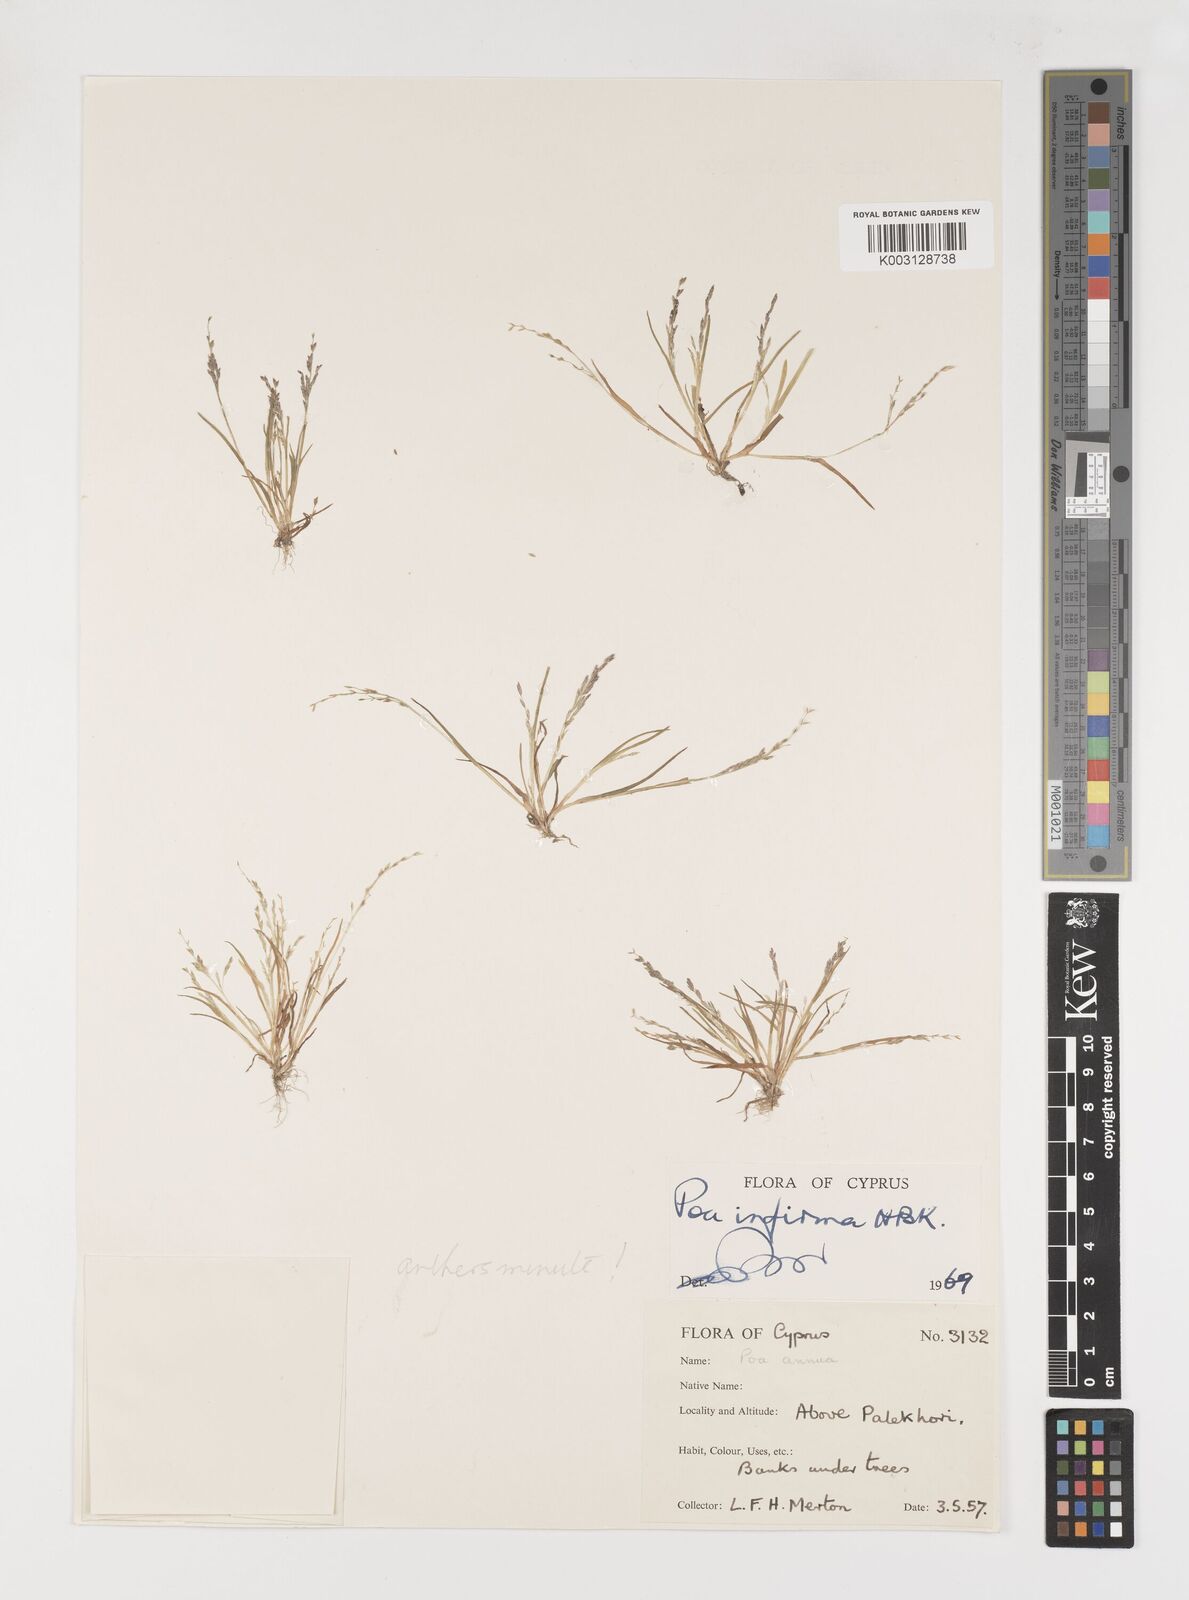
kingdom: Plantae
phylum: Tracheophyta
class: Liliopsida
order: Poales
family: Poaceae
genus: Poa
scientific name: Poa infirma
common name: Weak bluegrass
